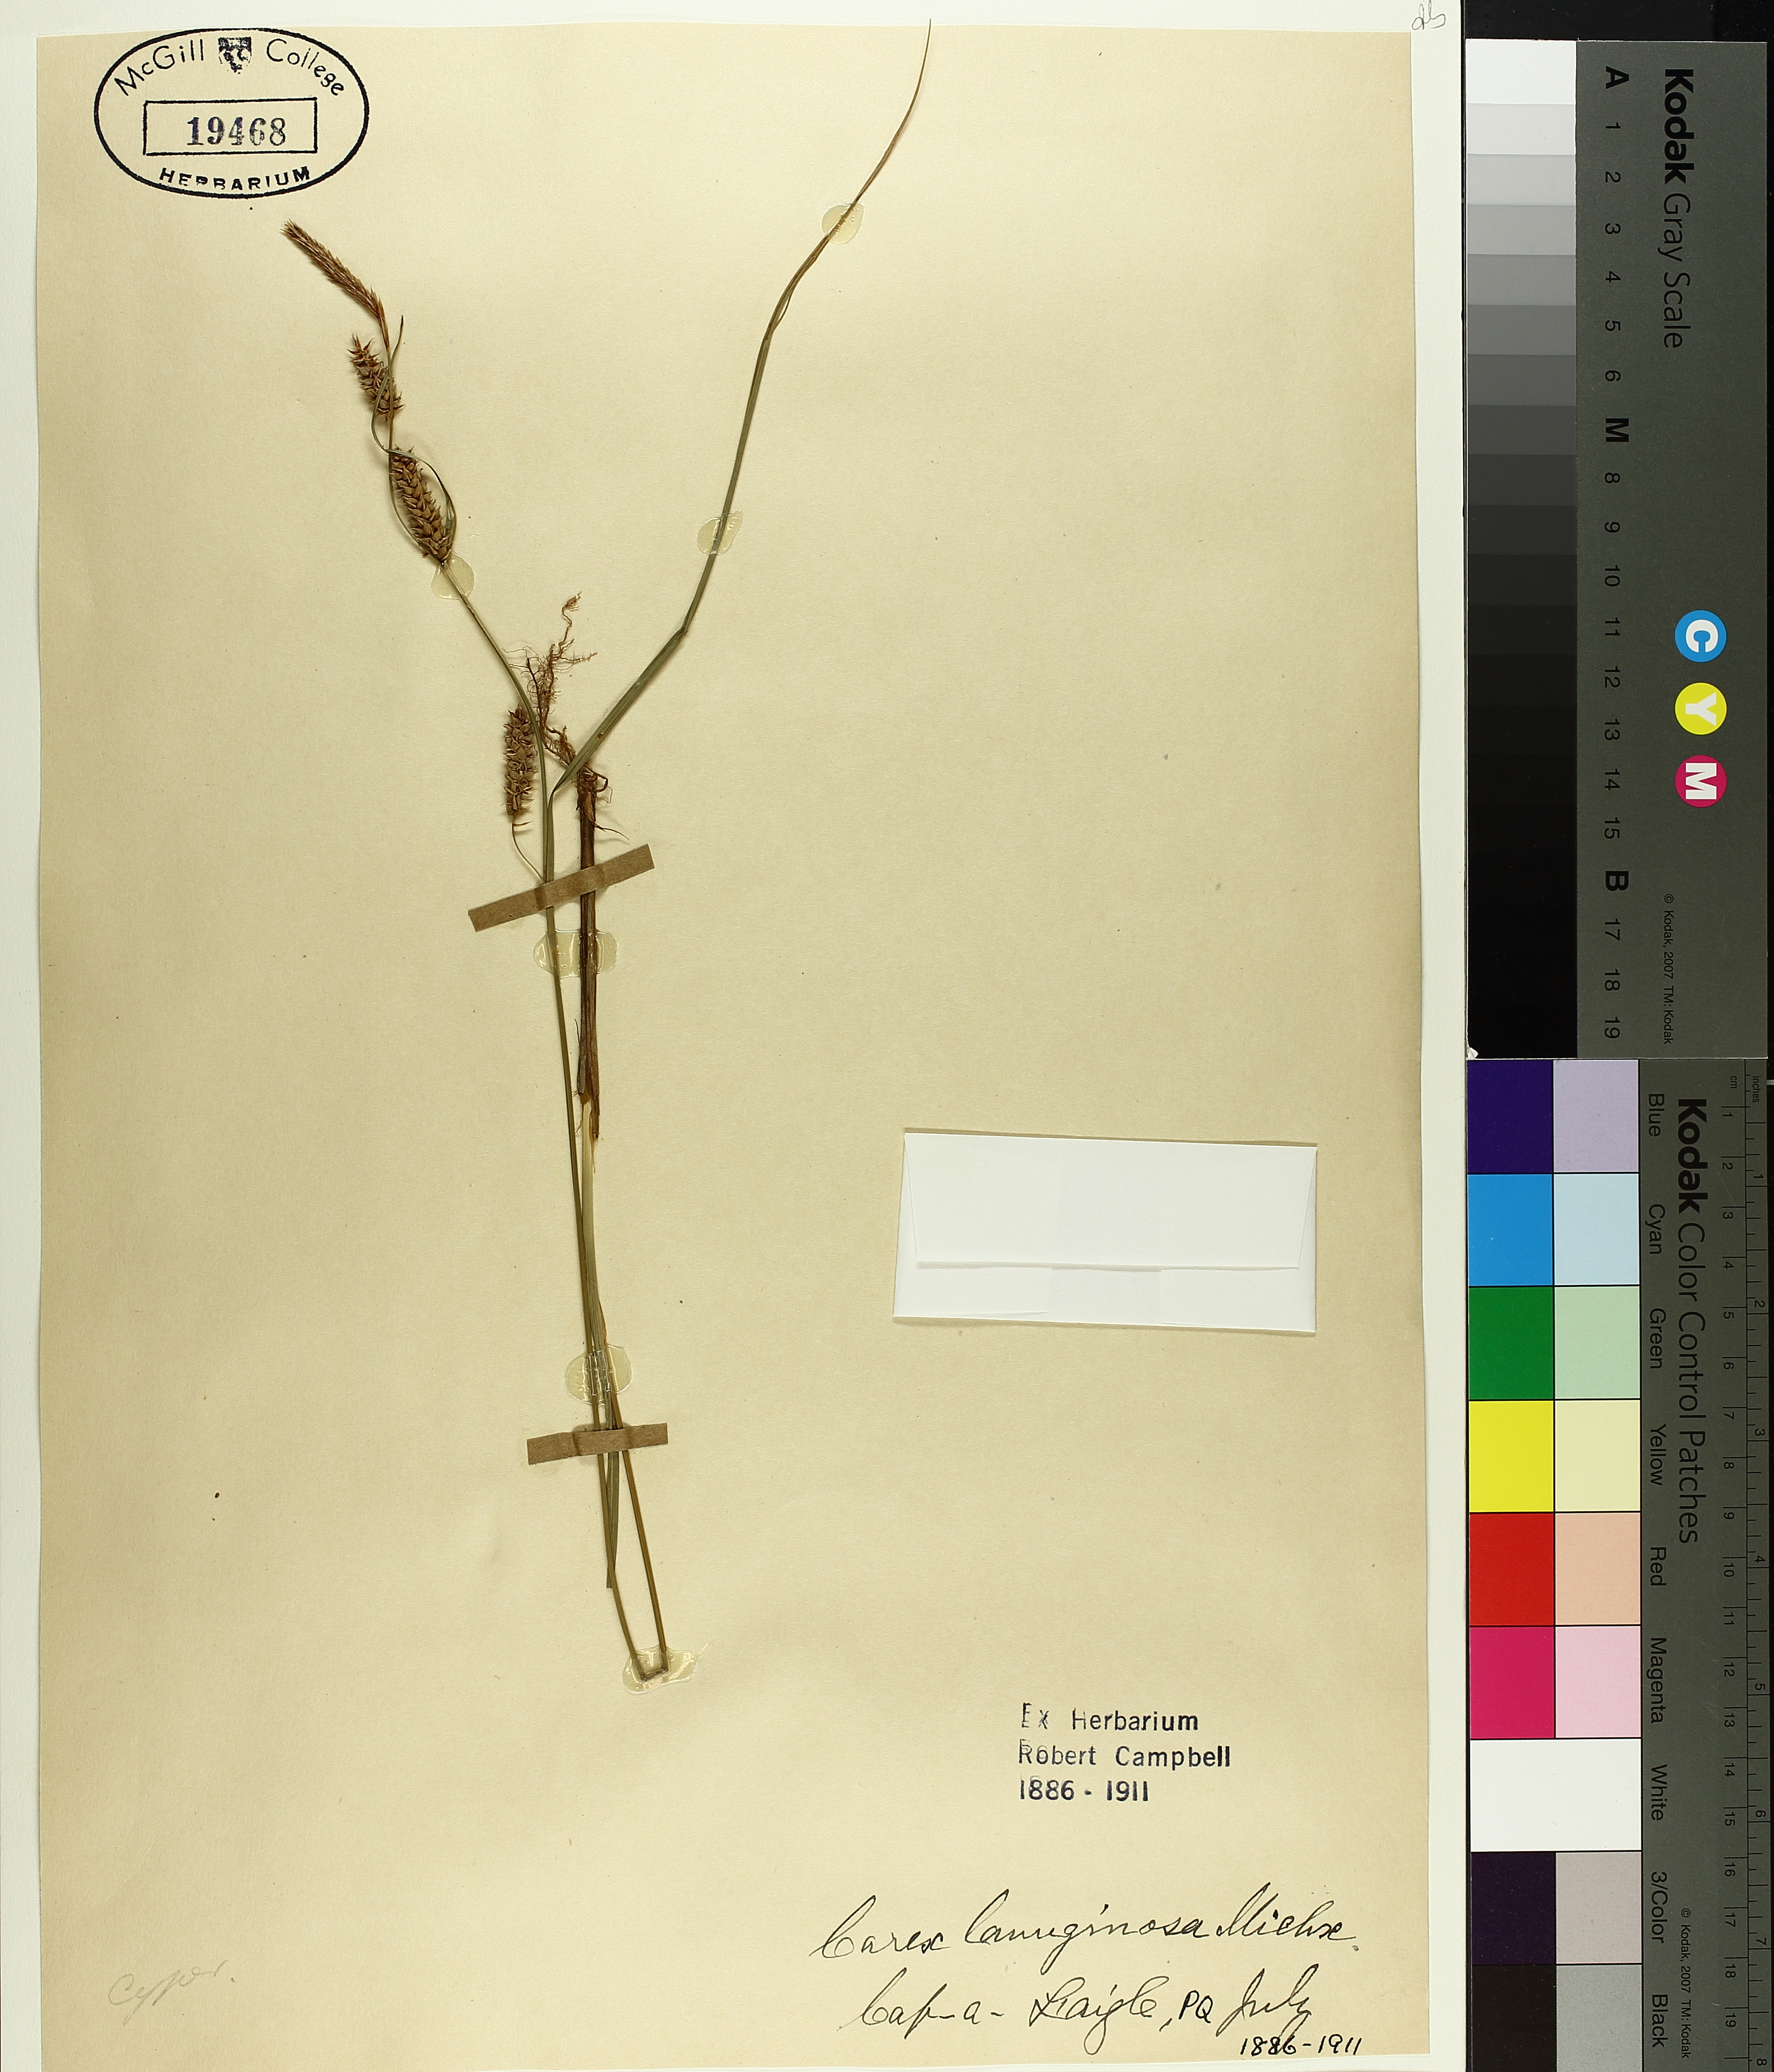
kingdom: Plantae
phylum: Tracheophyta
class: Liliopsida
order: Poales
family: Cyperaceae
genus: Carex
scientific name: Carex pellita
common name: Woolly sedge
